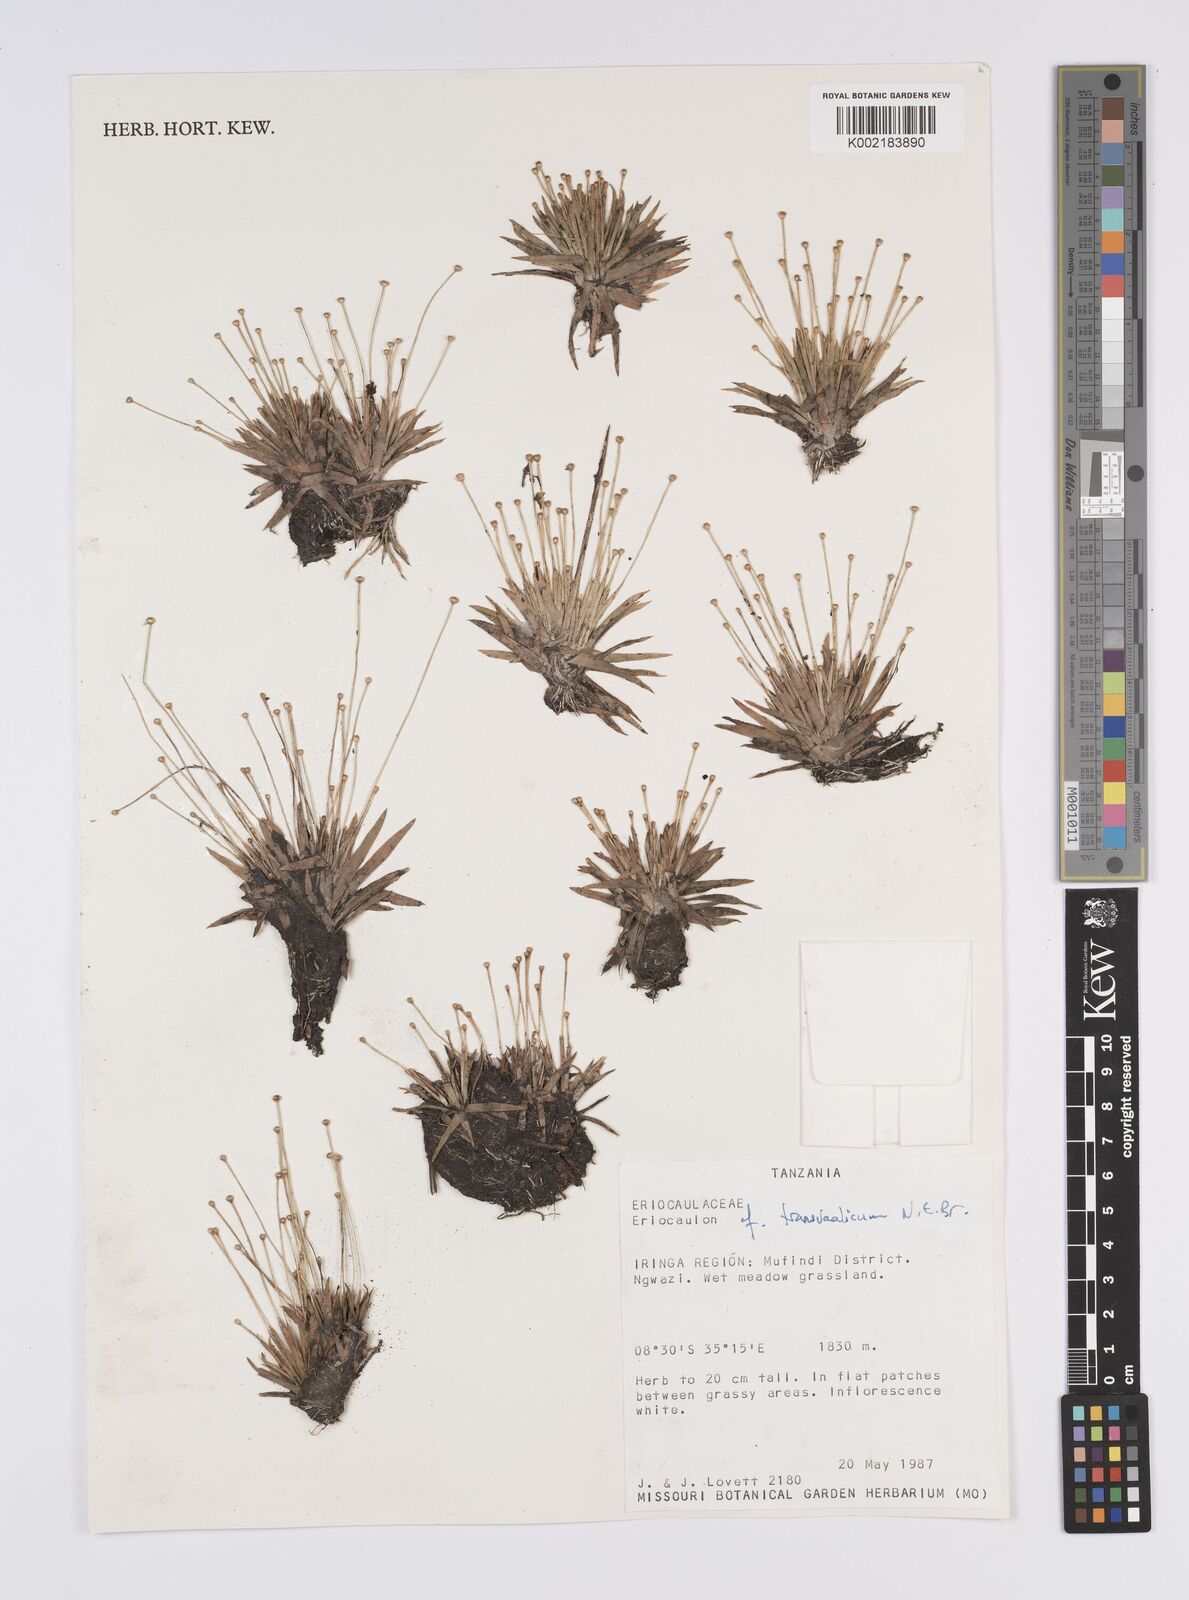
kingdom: Plantae
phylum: Tracheophyta
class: Liliopsida
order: Poales
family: Eriocaulaceae
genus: Eriocaulon
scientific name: Eriocaulon transvaalicum
